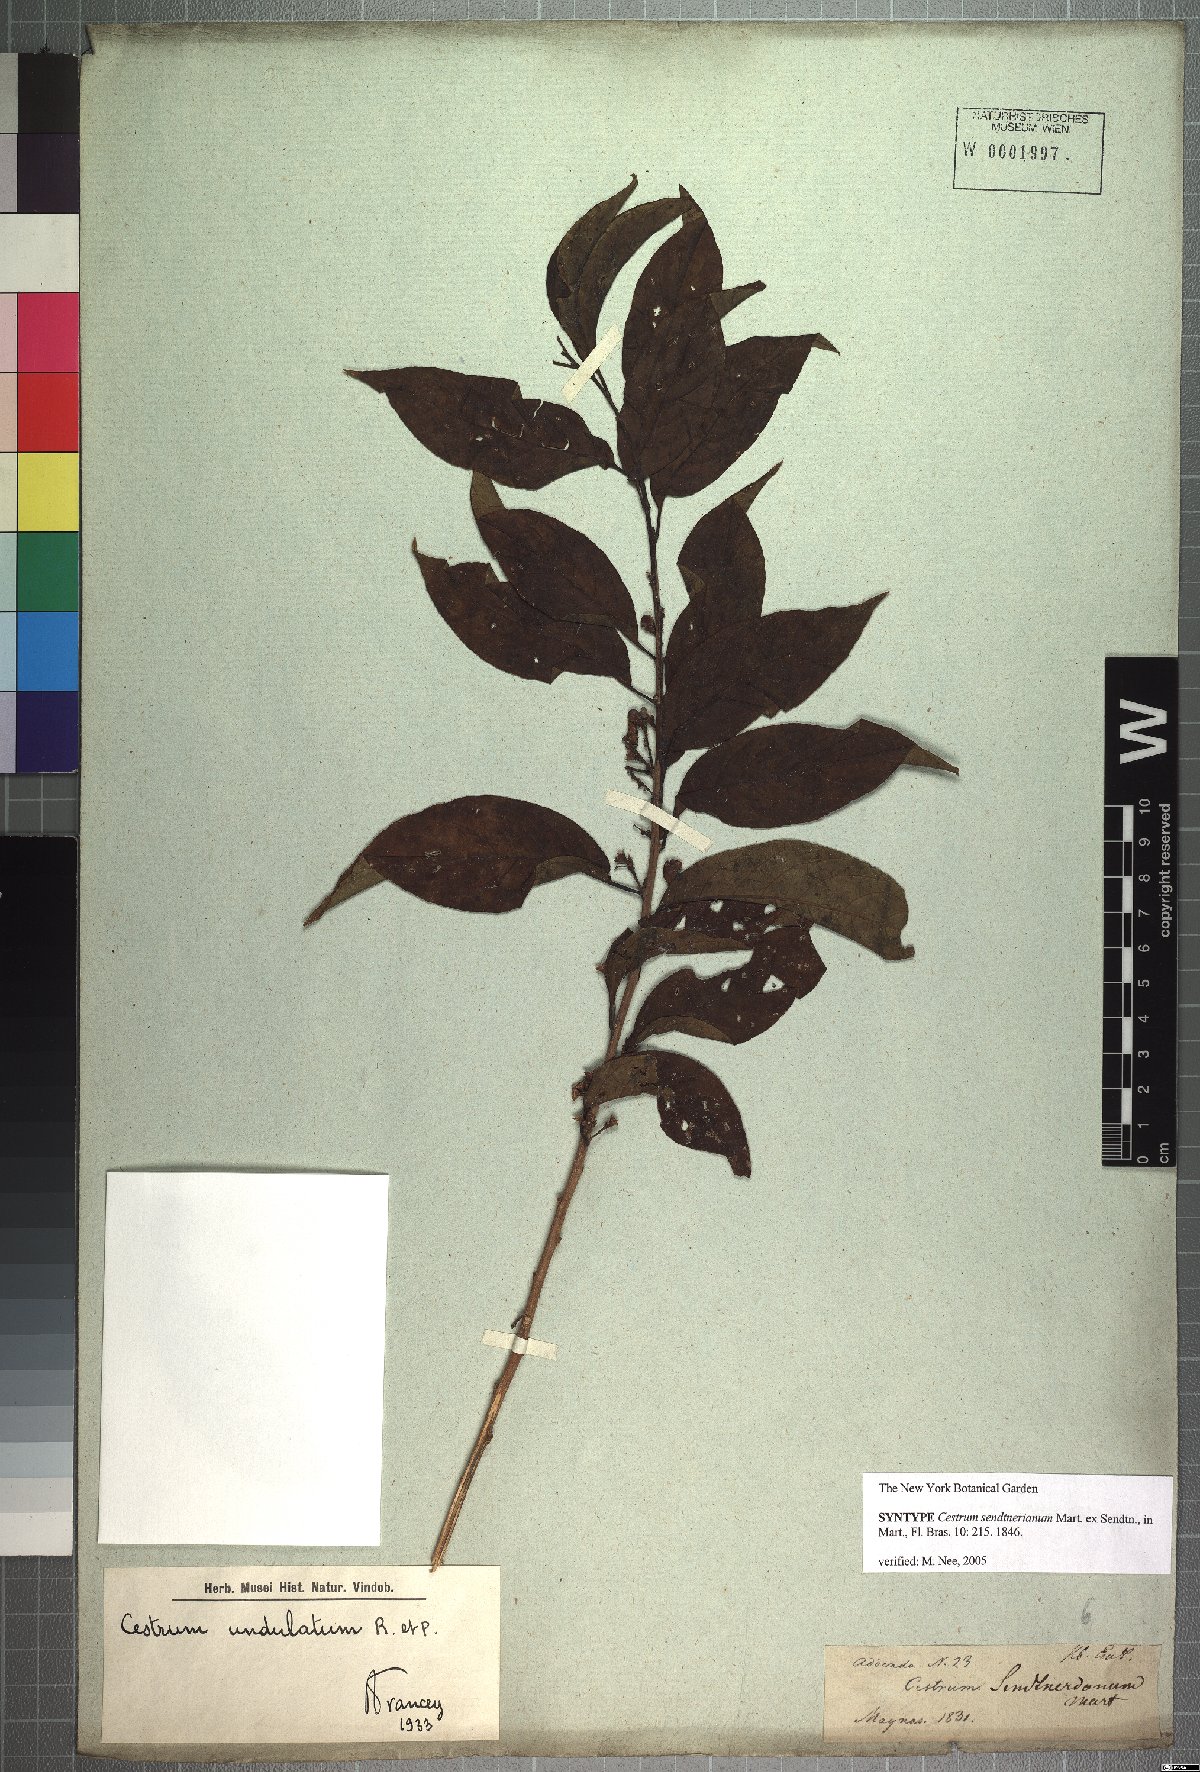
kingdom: Plantae
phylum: Tracheophyta
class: Magnoliopsida
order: Solanales
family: Solanaceae
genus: Cestrum
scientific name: Cestrum mariquitense
